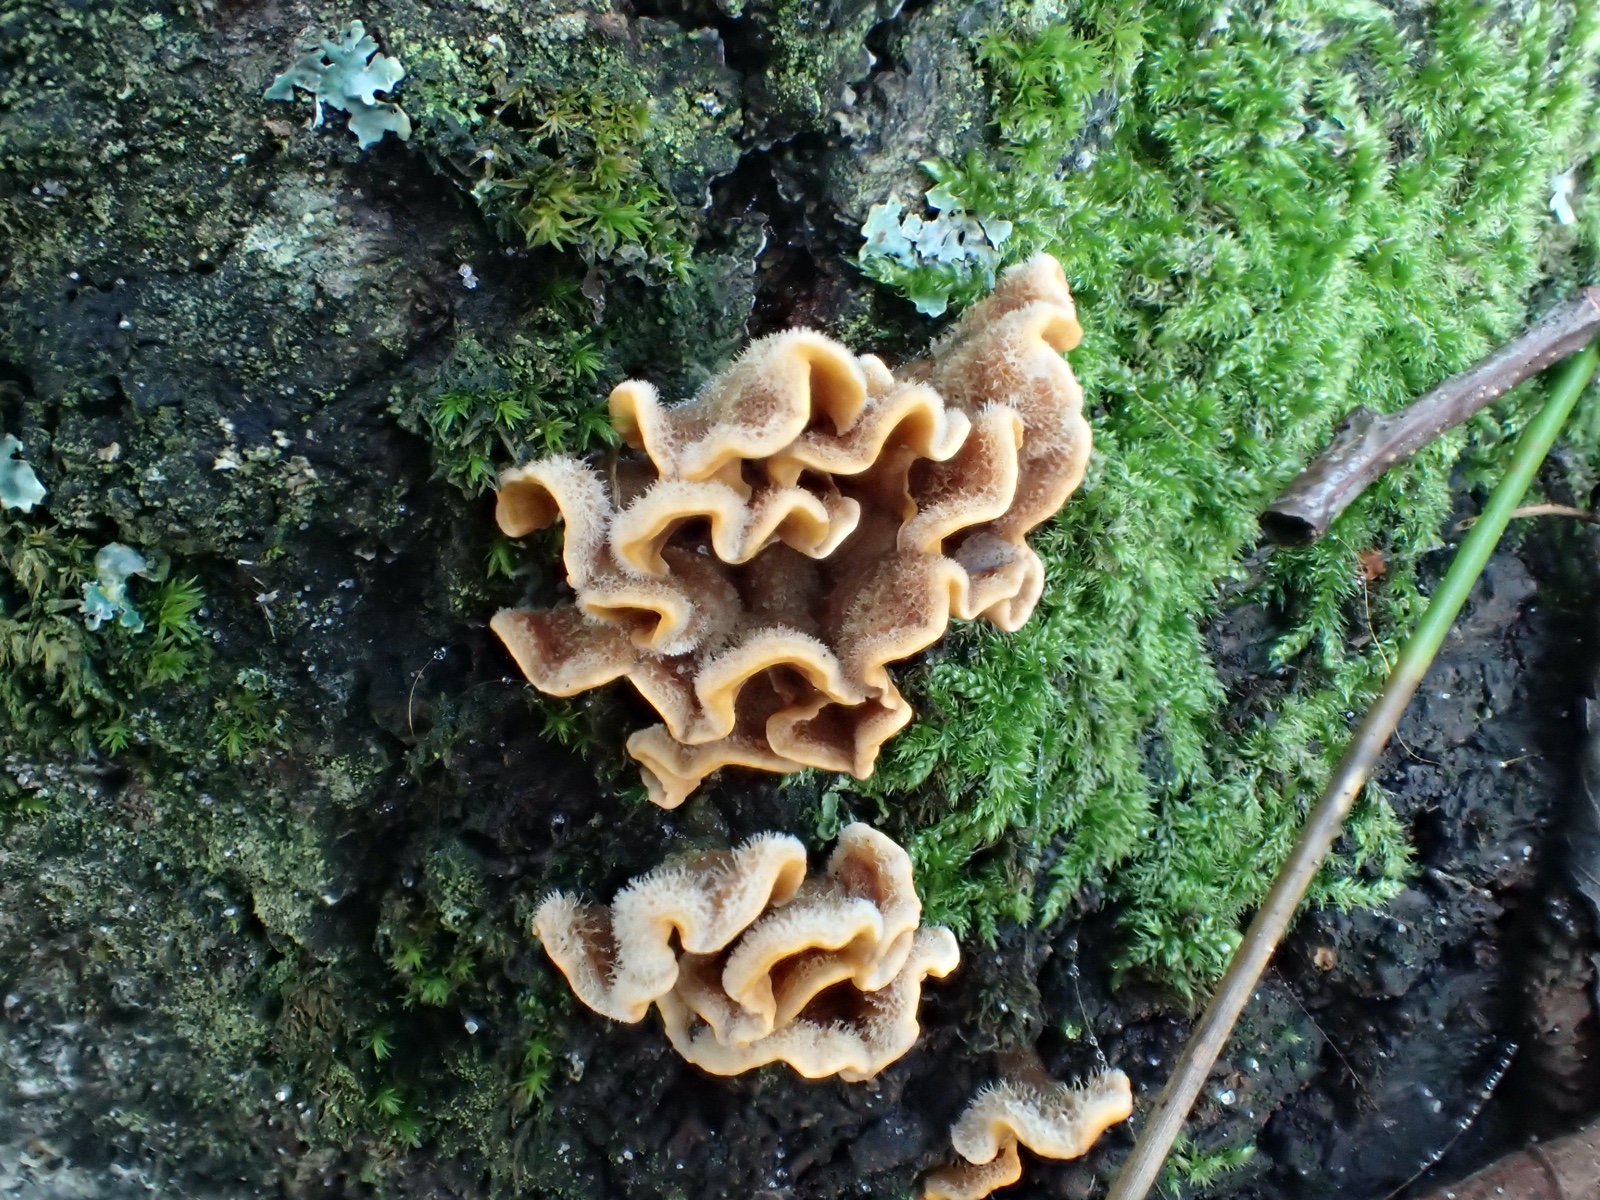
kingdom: Fungi
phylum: Basidiomycota
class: Agaricomycetes
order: Russulales
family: Stereaceae
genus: Stereum
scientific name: Stereum hirsutum
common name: håret lædersvamp
